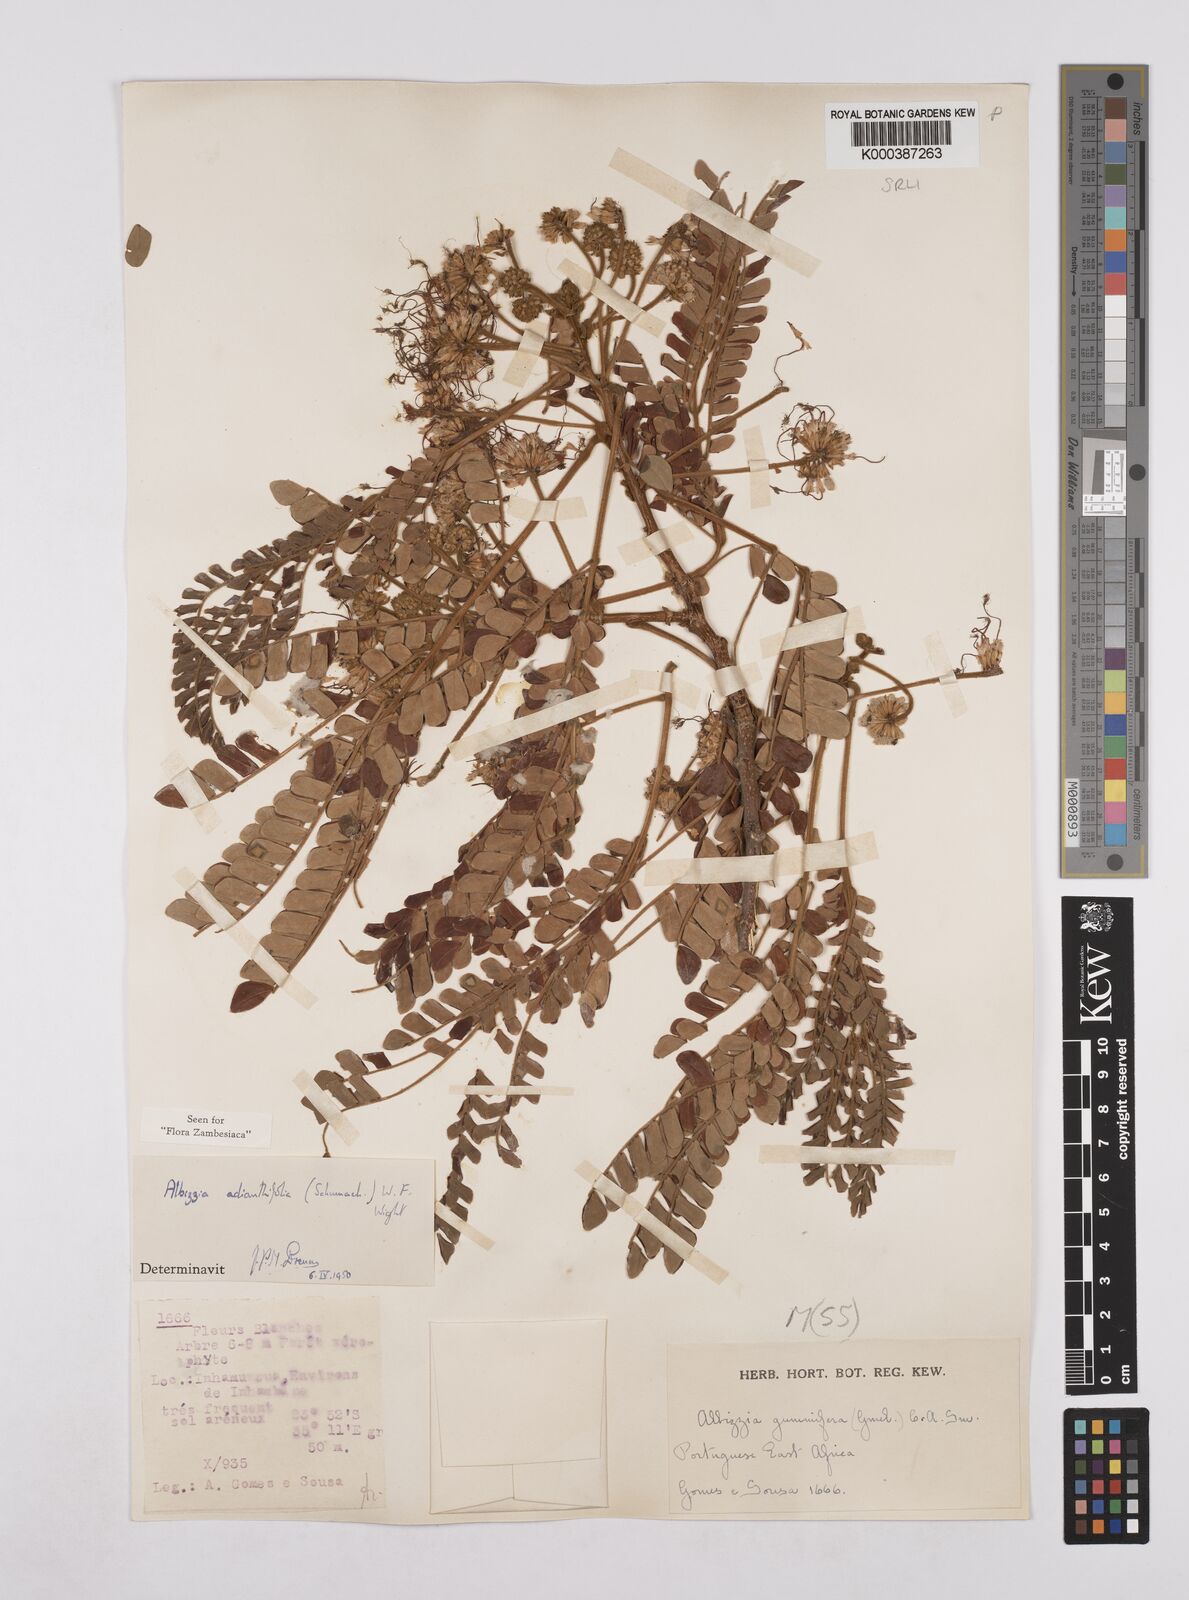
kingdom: Plantae
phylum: Tracheophyta
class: Magnoliopsida
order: Fabales
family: Fabaceae
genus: Albizia
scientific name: Albizia adianthifolia
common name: West african albizia
